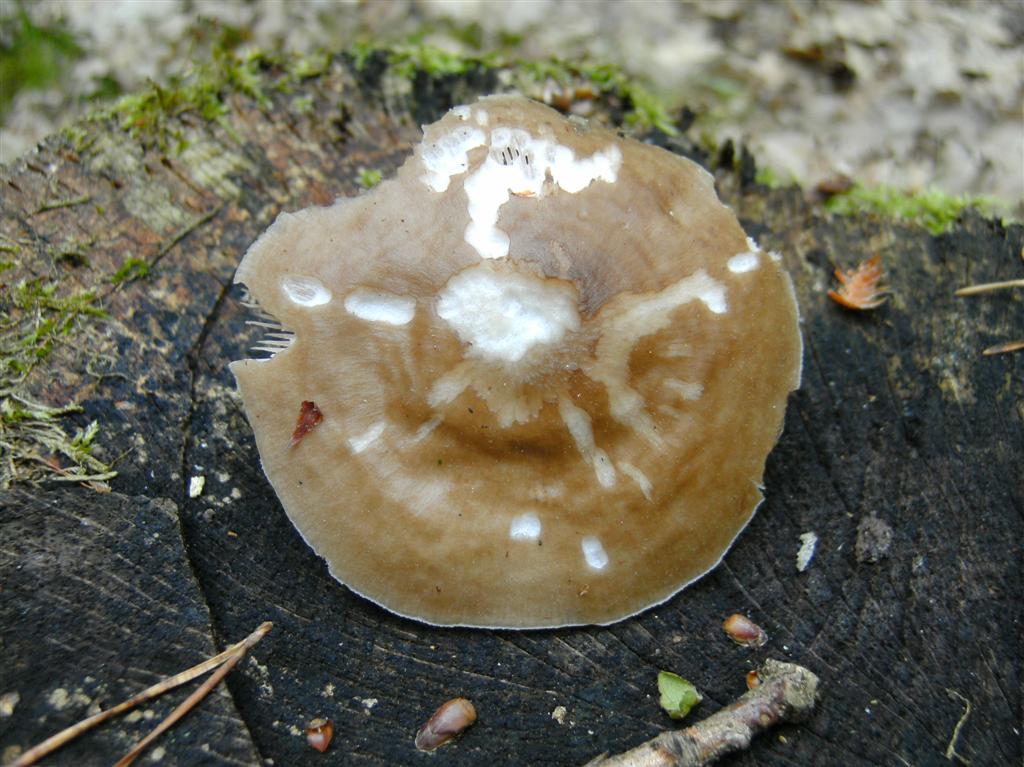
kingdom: Fungi
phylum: Basidiomycota
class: Agaricomycetes
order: Agaricales
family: Pluteaceae
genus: Pluteus
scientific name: Pluteus cervinus
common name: sodfarvet skærmhat
